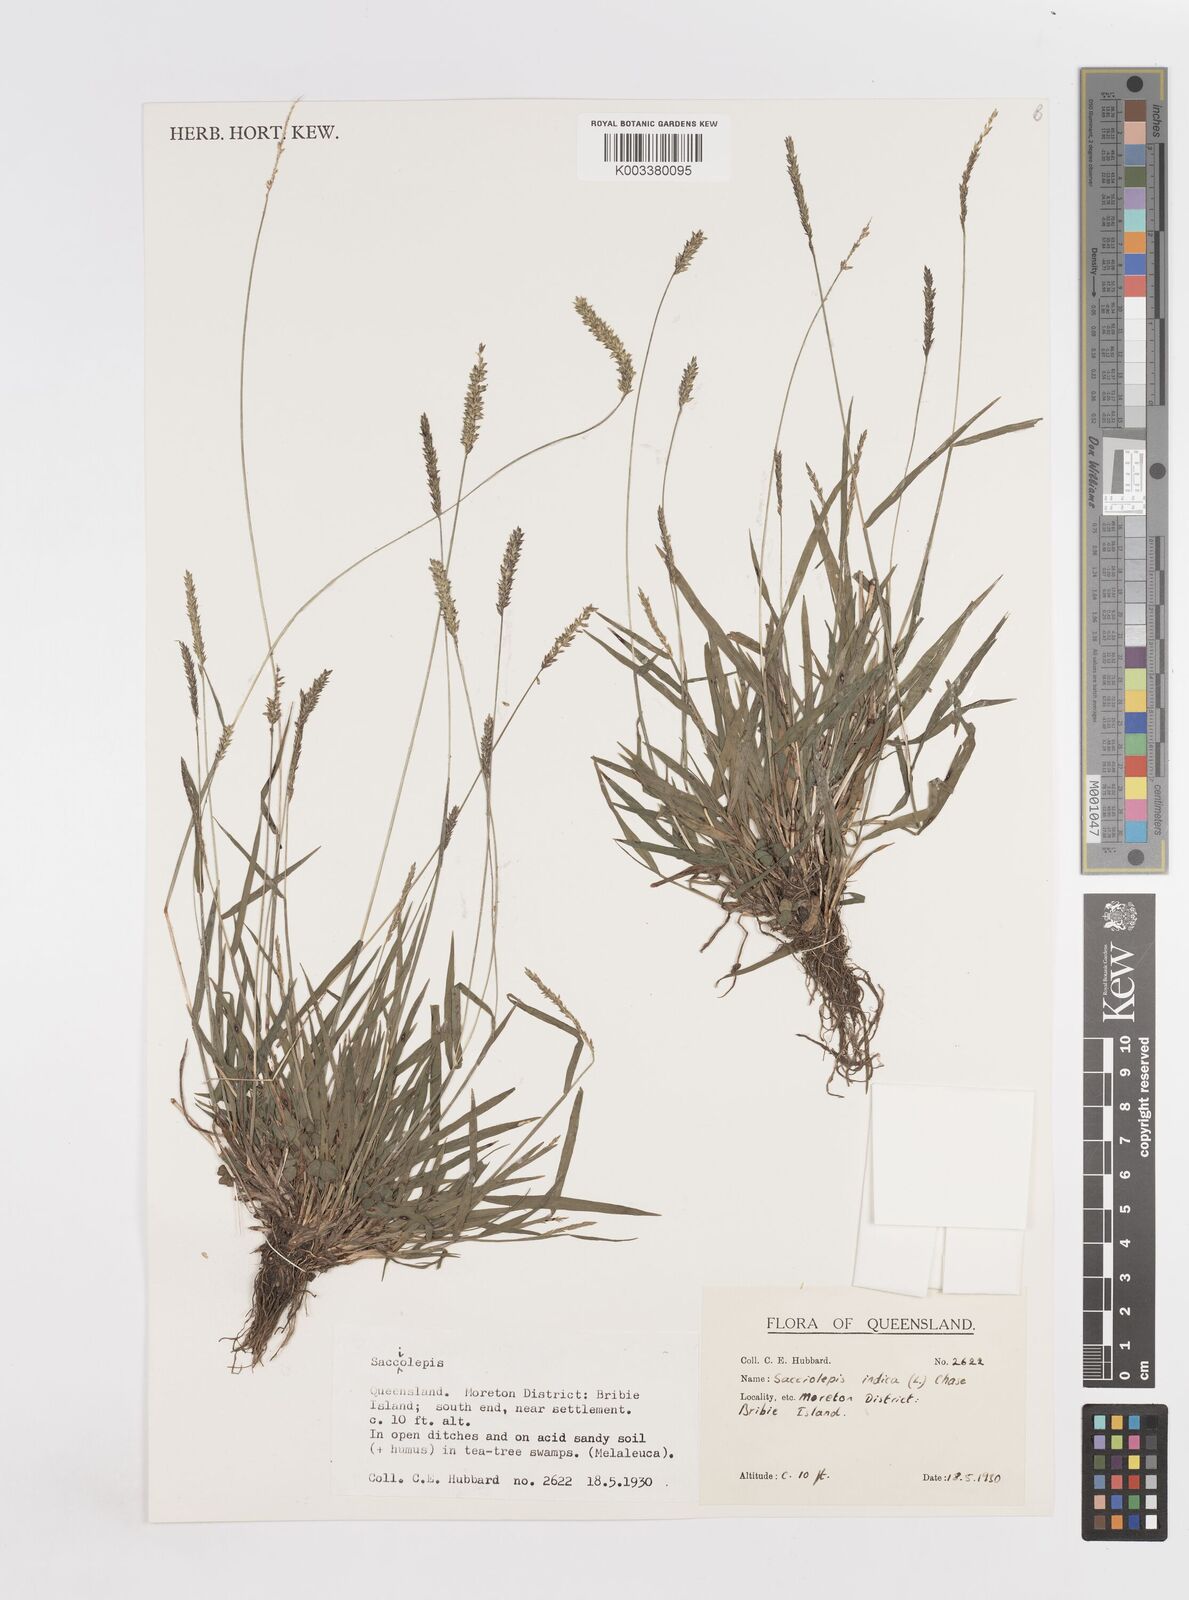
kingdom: Plantae
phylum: Tracheophyta
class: Liliopsida
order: Poales
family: Poaceae
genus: Sacciolepis
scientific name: Sacciolepis indica
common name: Glenwoodgrass
